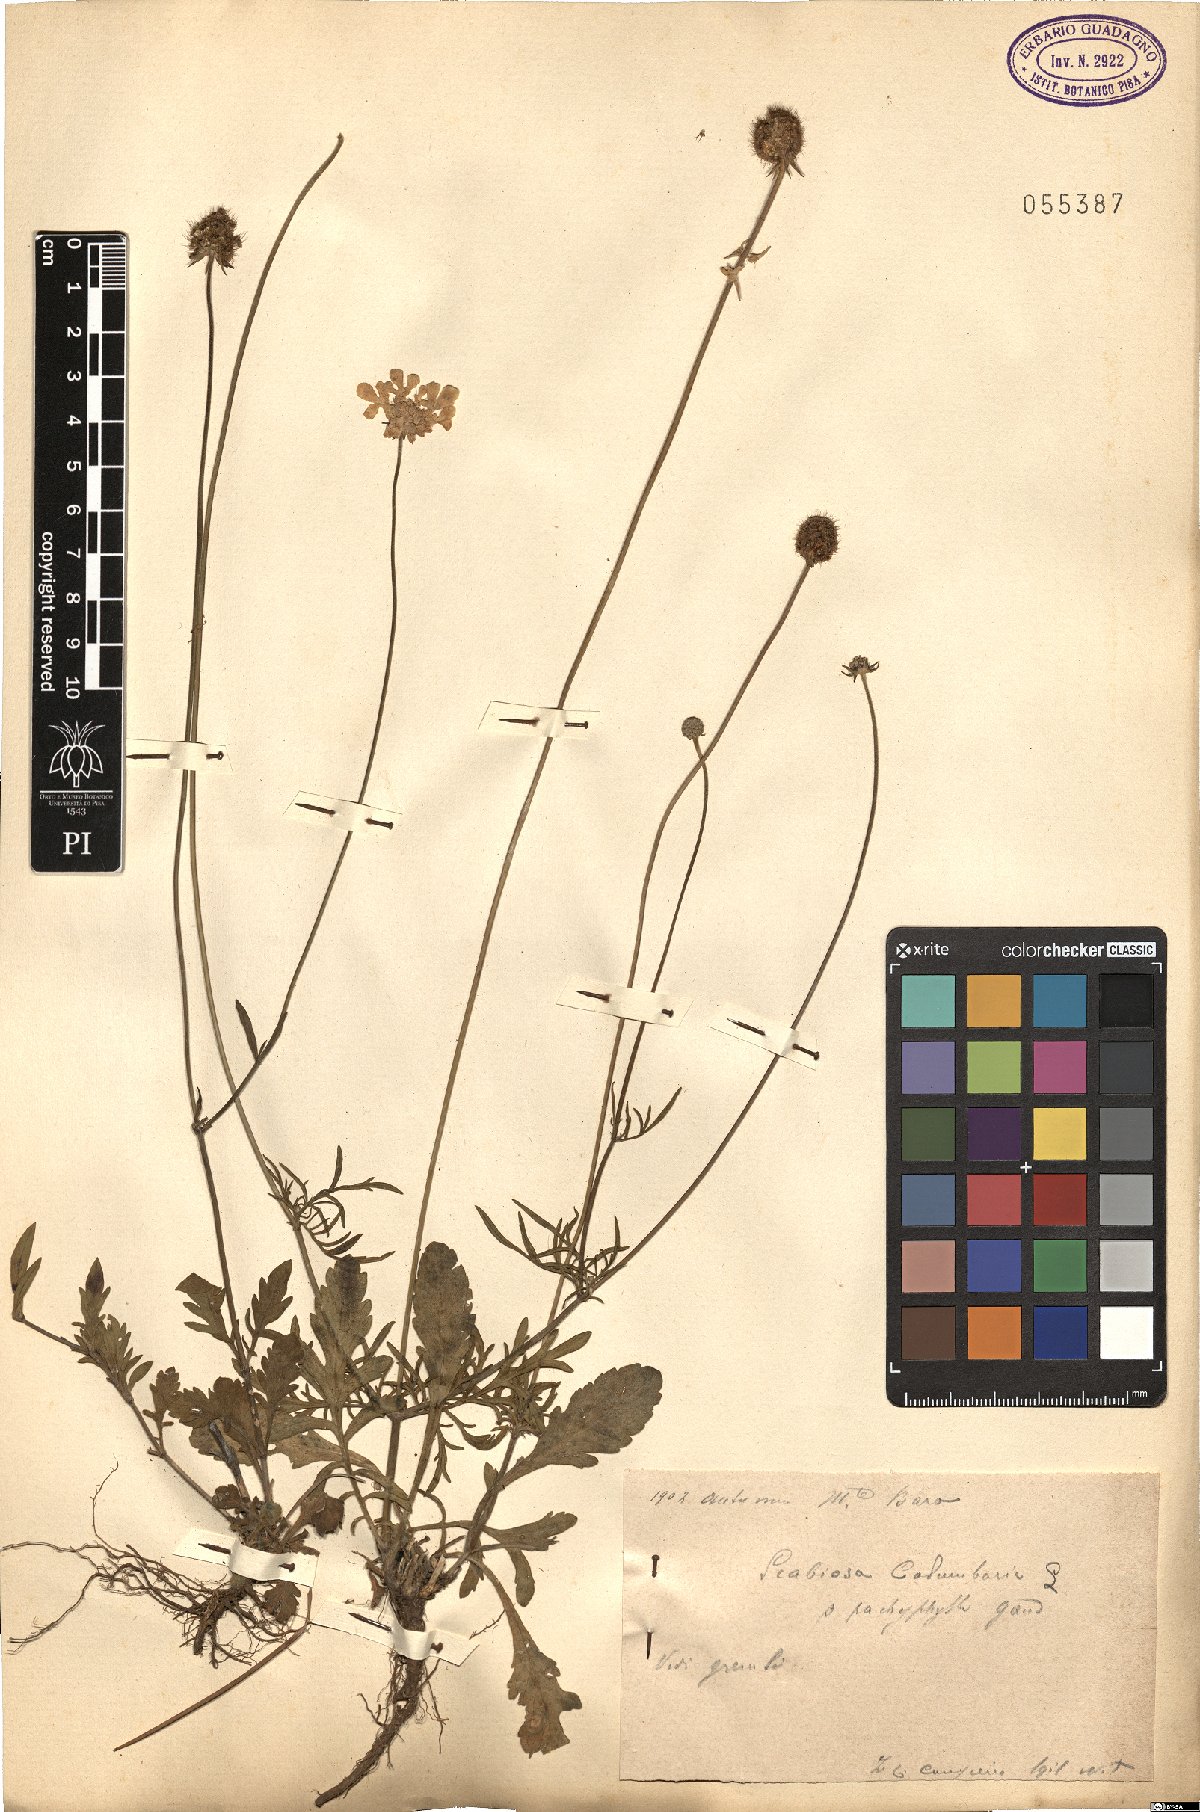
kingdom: Plantae
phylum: Tracheophyta
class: Magnoliopsida
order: Dipsacales
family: Caprifoliaceae
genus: Scabiosa
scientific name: Scabiosa columbaria
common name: Small scabious
